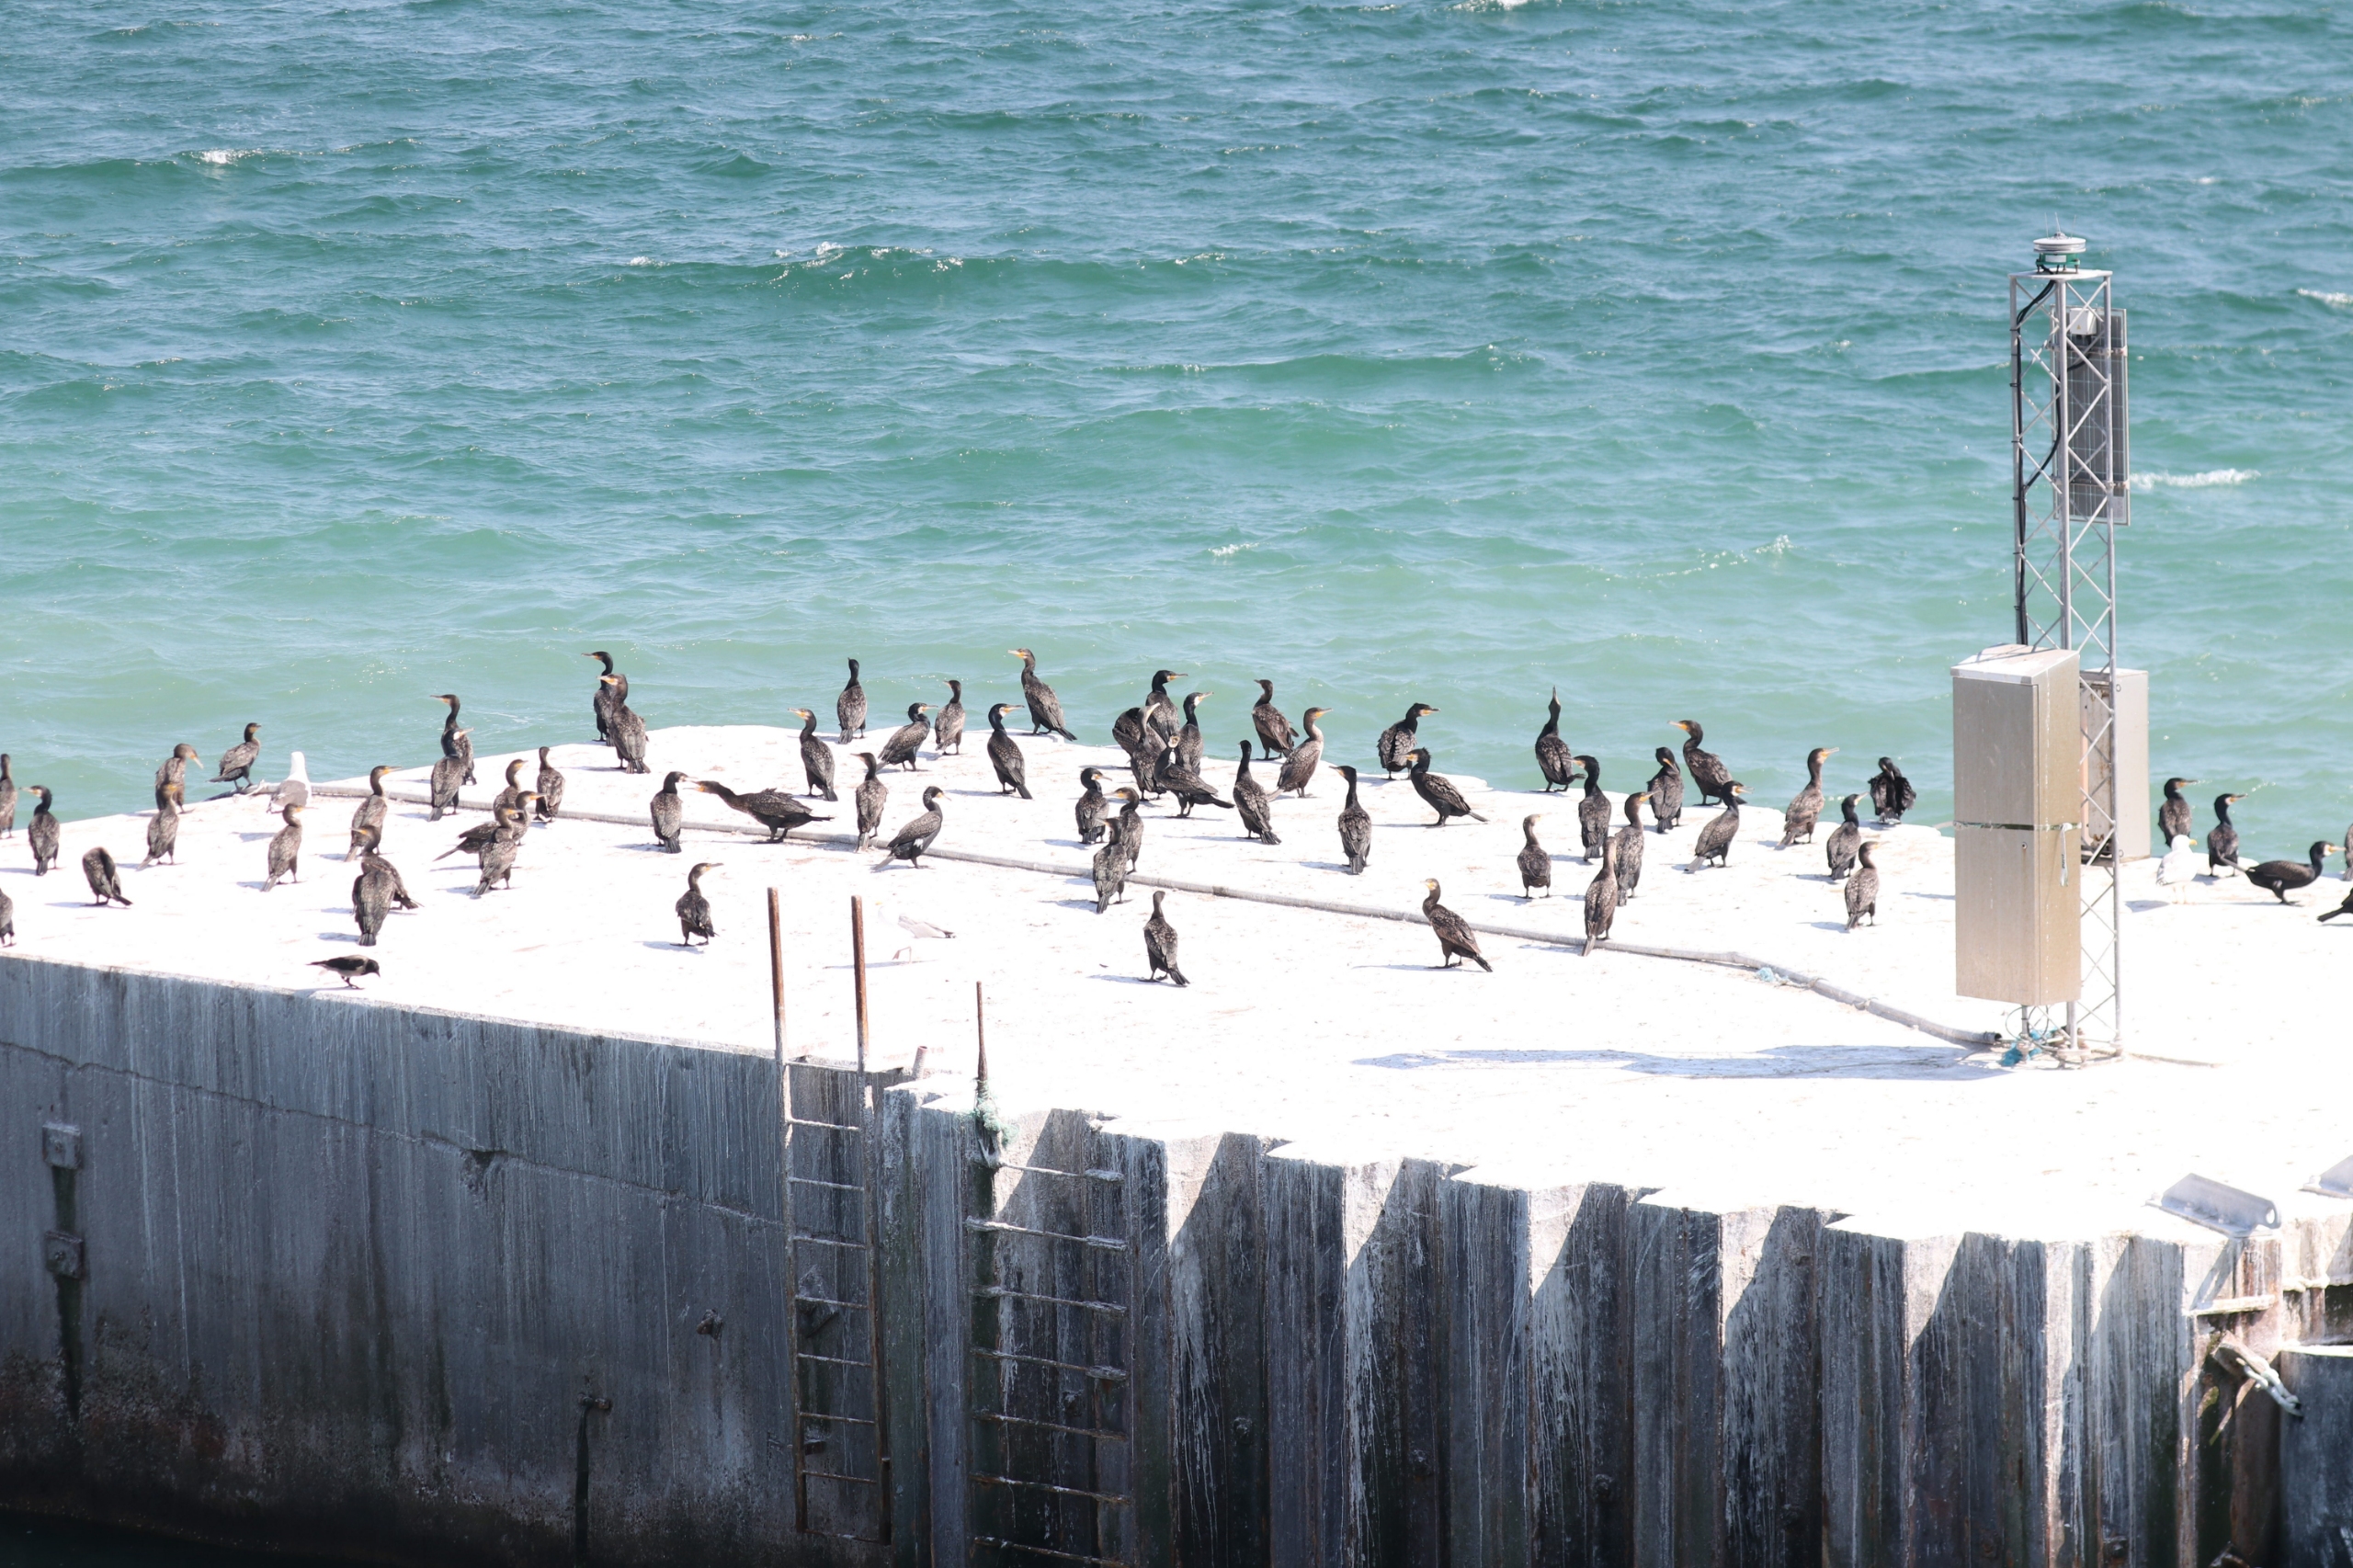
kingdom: Animalia
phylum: Chordata
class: Aves
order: Suliformes
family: Phalacrocoracidae
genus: Phalacrocorax
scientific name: Phalacrocorax carbo
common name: Skarv
